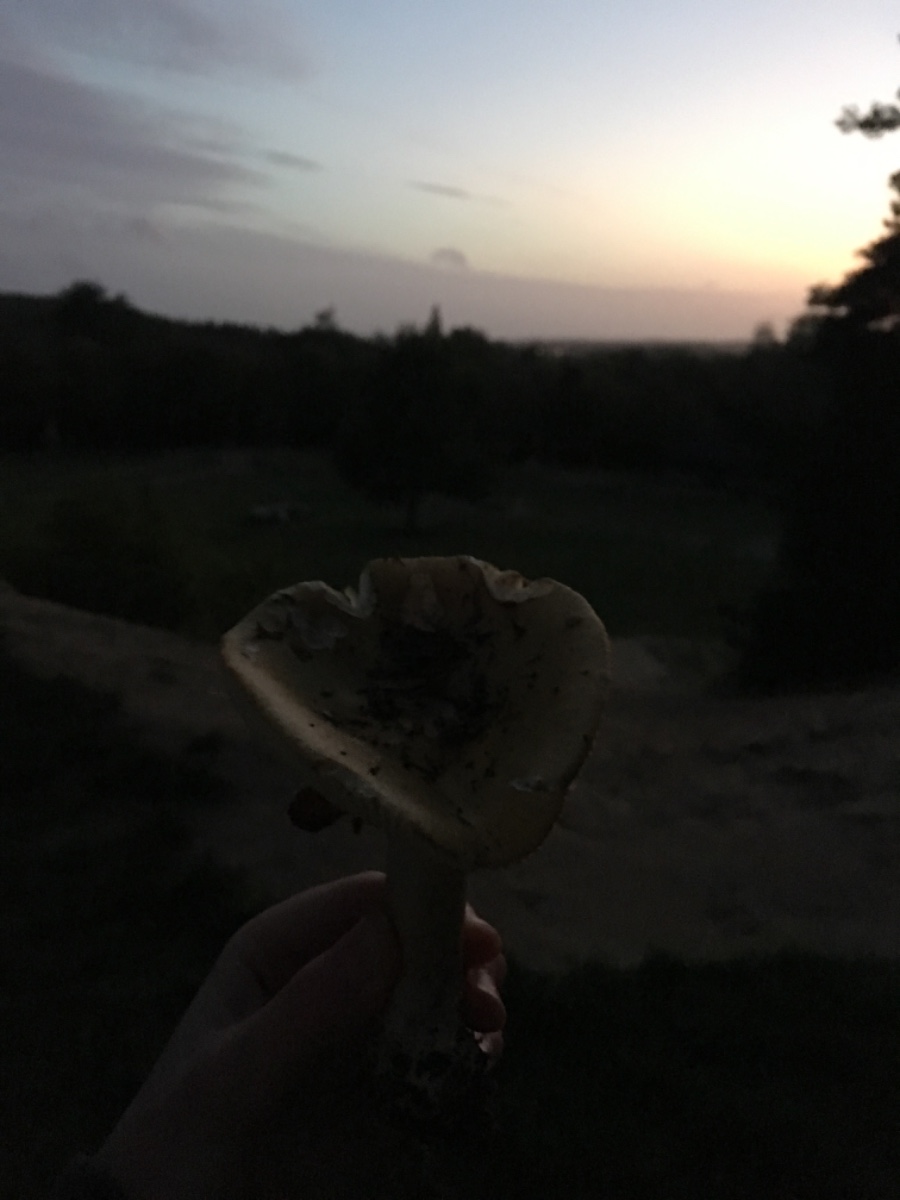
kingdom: Fungi
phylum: Basidiomycota
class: Agaricomycetes
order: Russulales
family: Russulaceae
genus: Russula
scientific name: Russula ochroleuca
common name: okkergul skørhat
